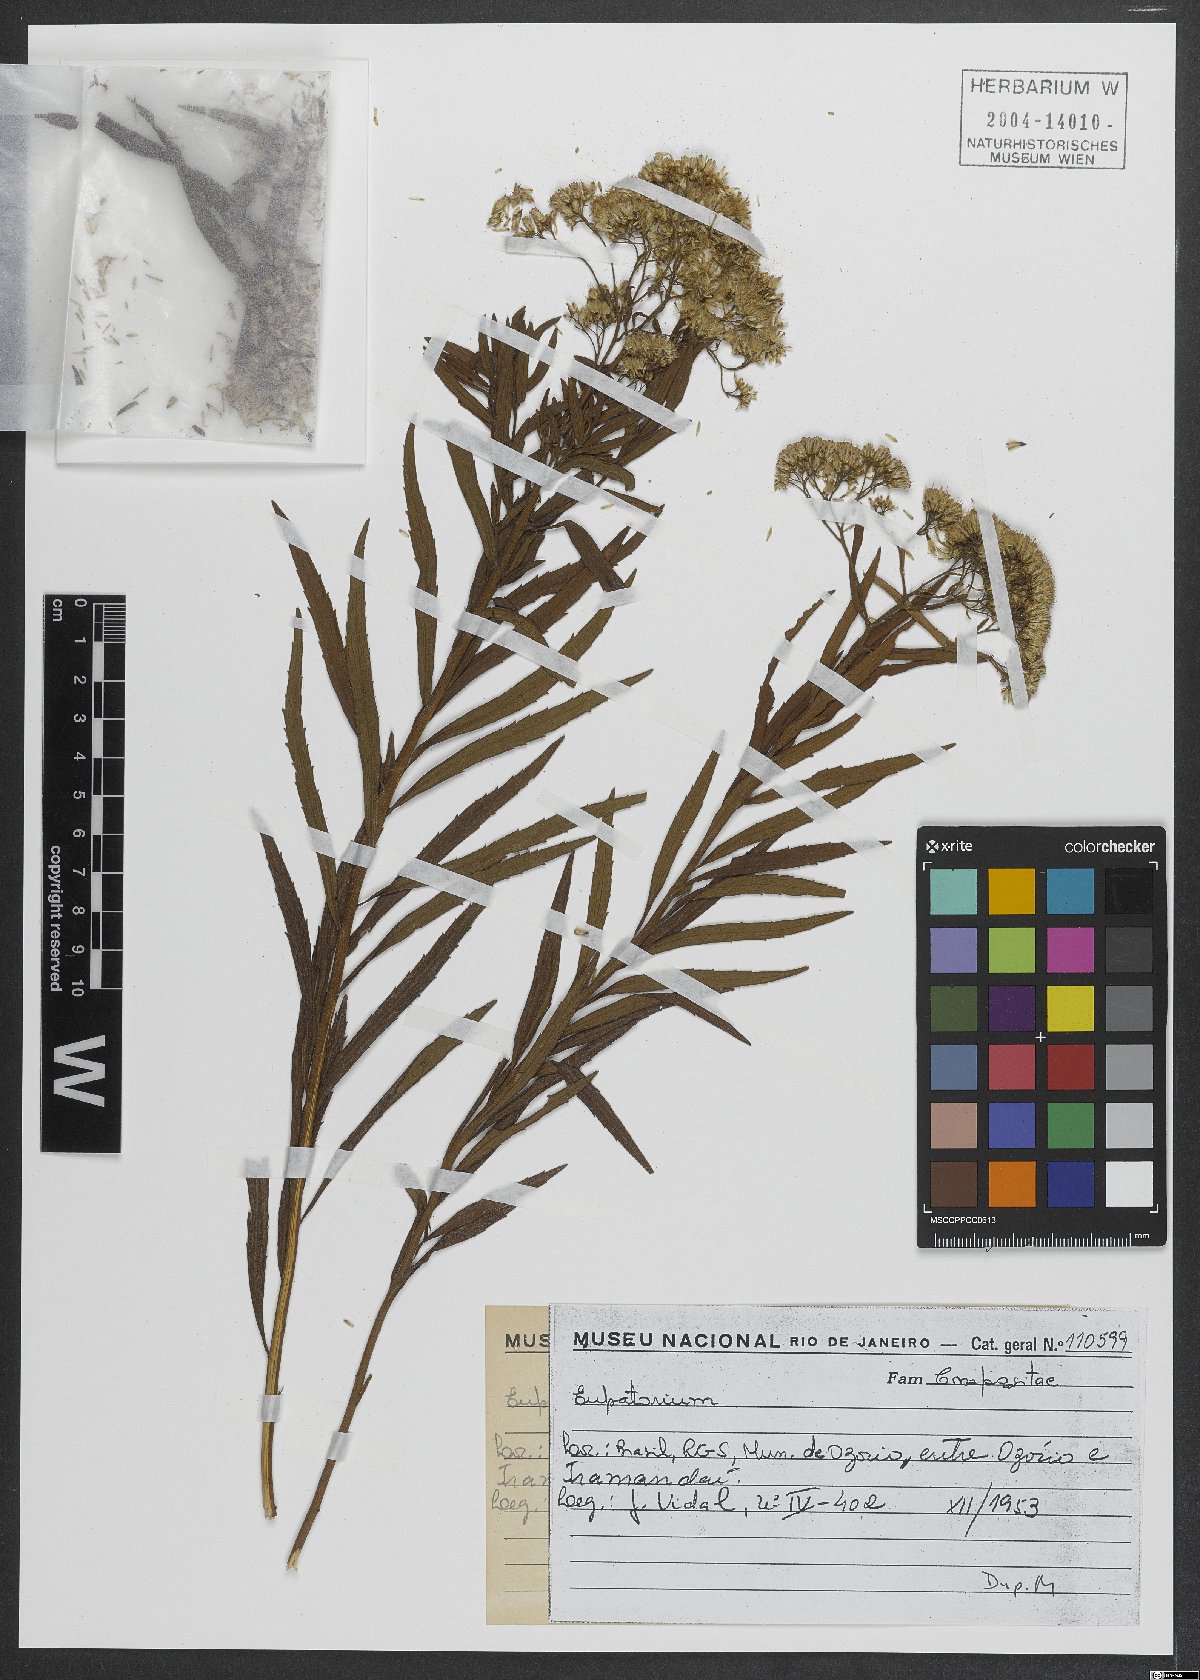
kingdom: Plantae
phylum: Tracheophyta
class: Magnoliopsida
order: Asterales
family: Asteraceae
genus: Eupatorium
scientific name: Eupatorium
